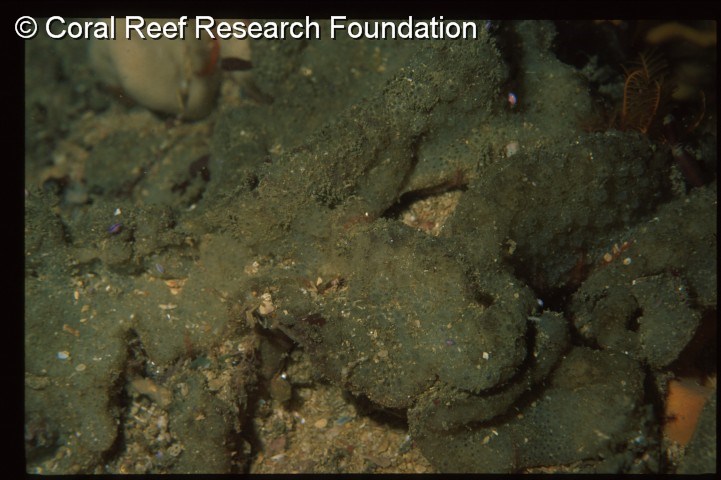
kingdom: Animalia
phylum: Chordata
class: Ascidiacea
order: Aplousobranchia
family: Polyclinidae
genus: Polyclinum
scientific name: Polyclinum isipingense
